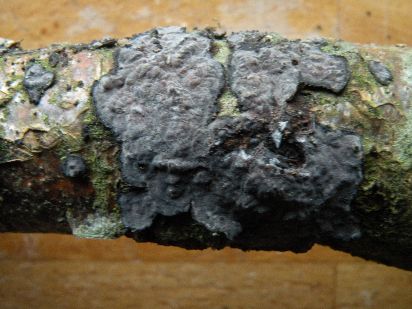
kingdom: Fungi
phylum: Basidiomycota
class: Agaricomycetes
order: Russulales
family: Peniophoraceae
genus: Peniophora
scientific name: Peniophora quercina
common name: ege-voksskind
